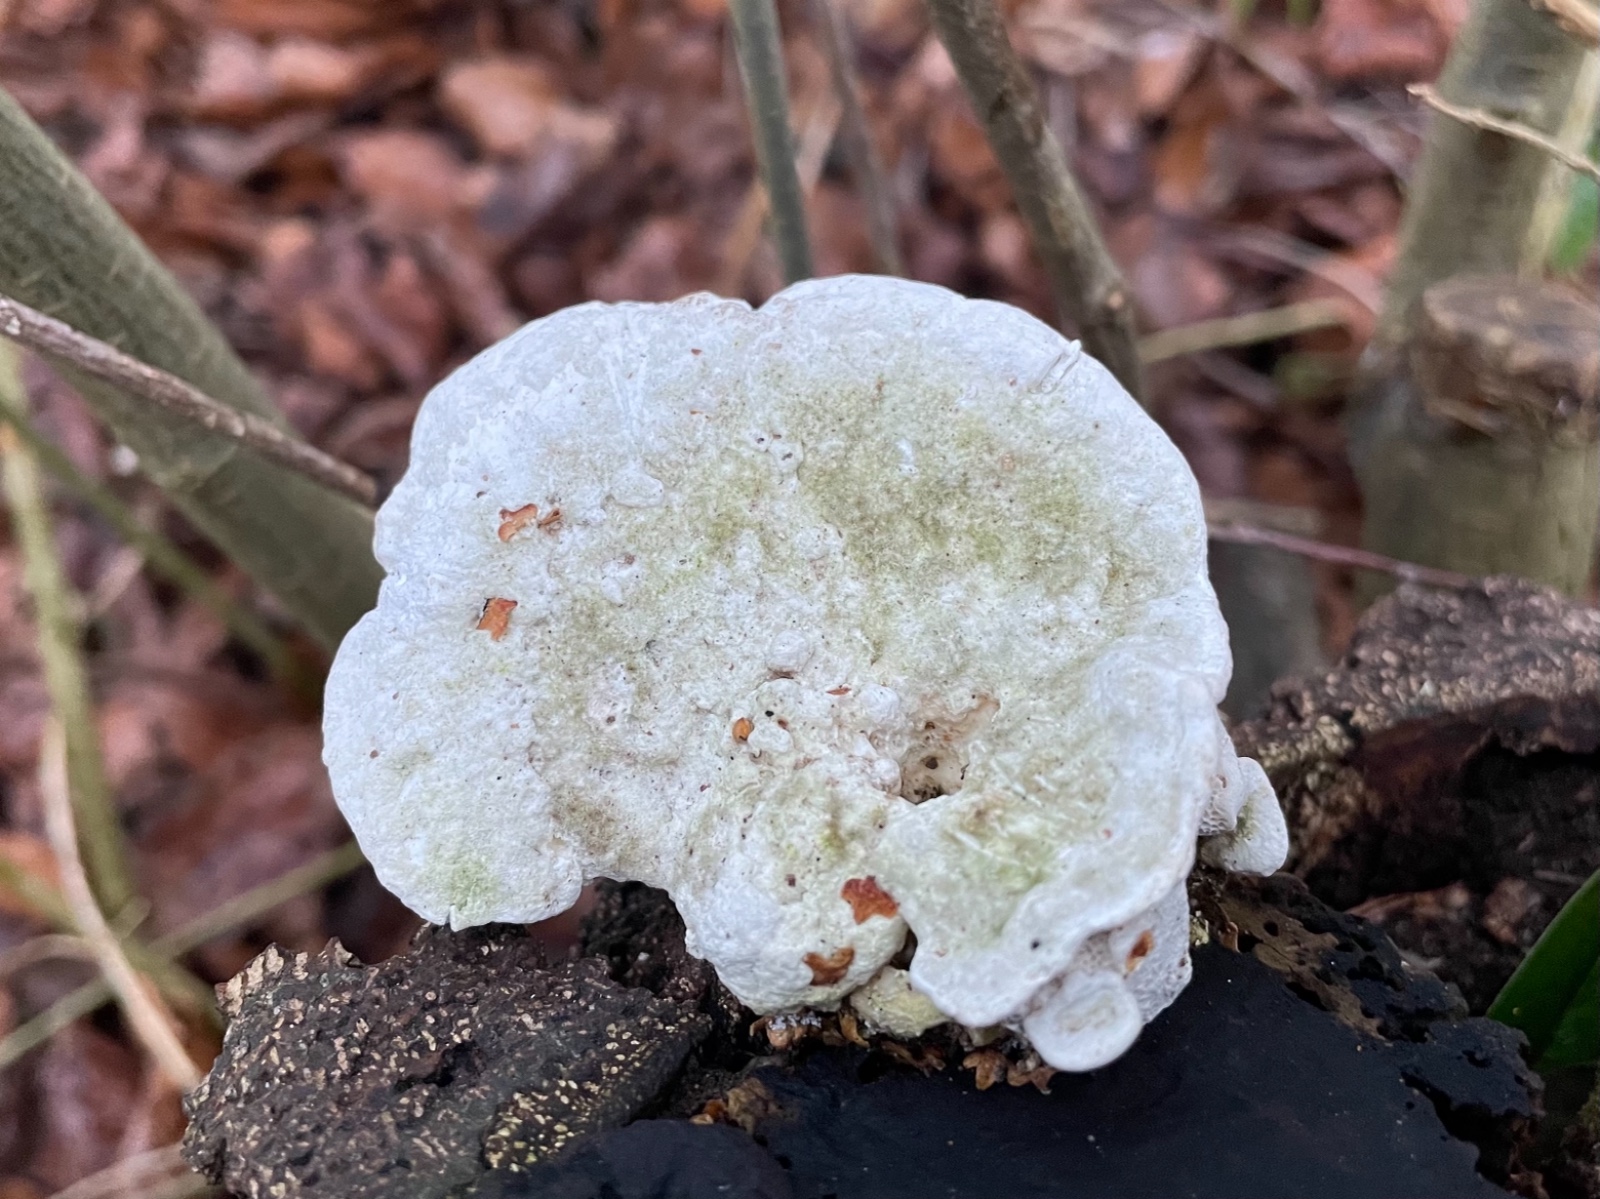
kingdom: Fungi
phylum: Basidiomycota
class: Agaricomycetes
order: Polyporales
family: Polyporaceae
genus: Trametes
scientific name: Trametes gibbosa
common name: puklet læderporesvamp
